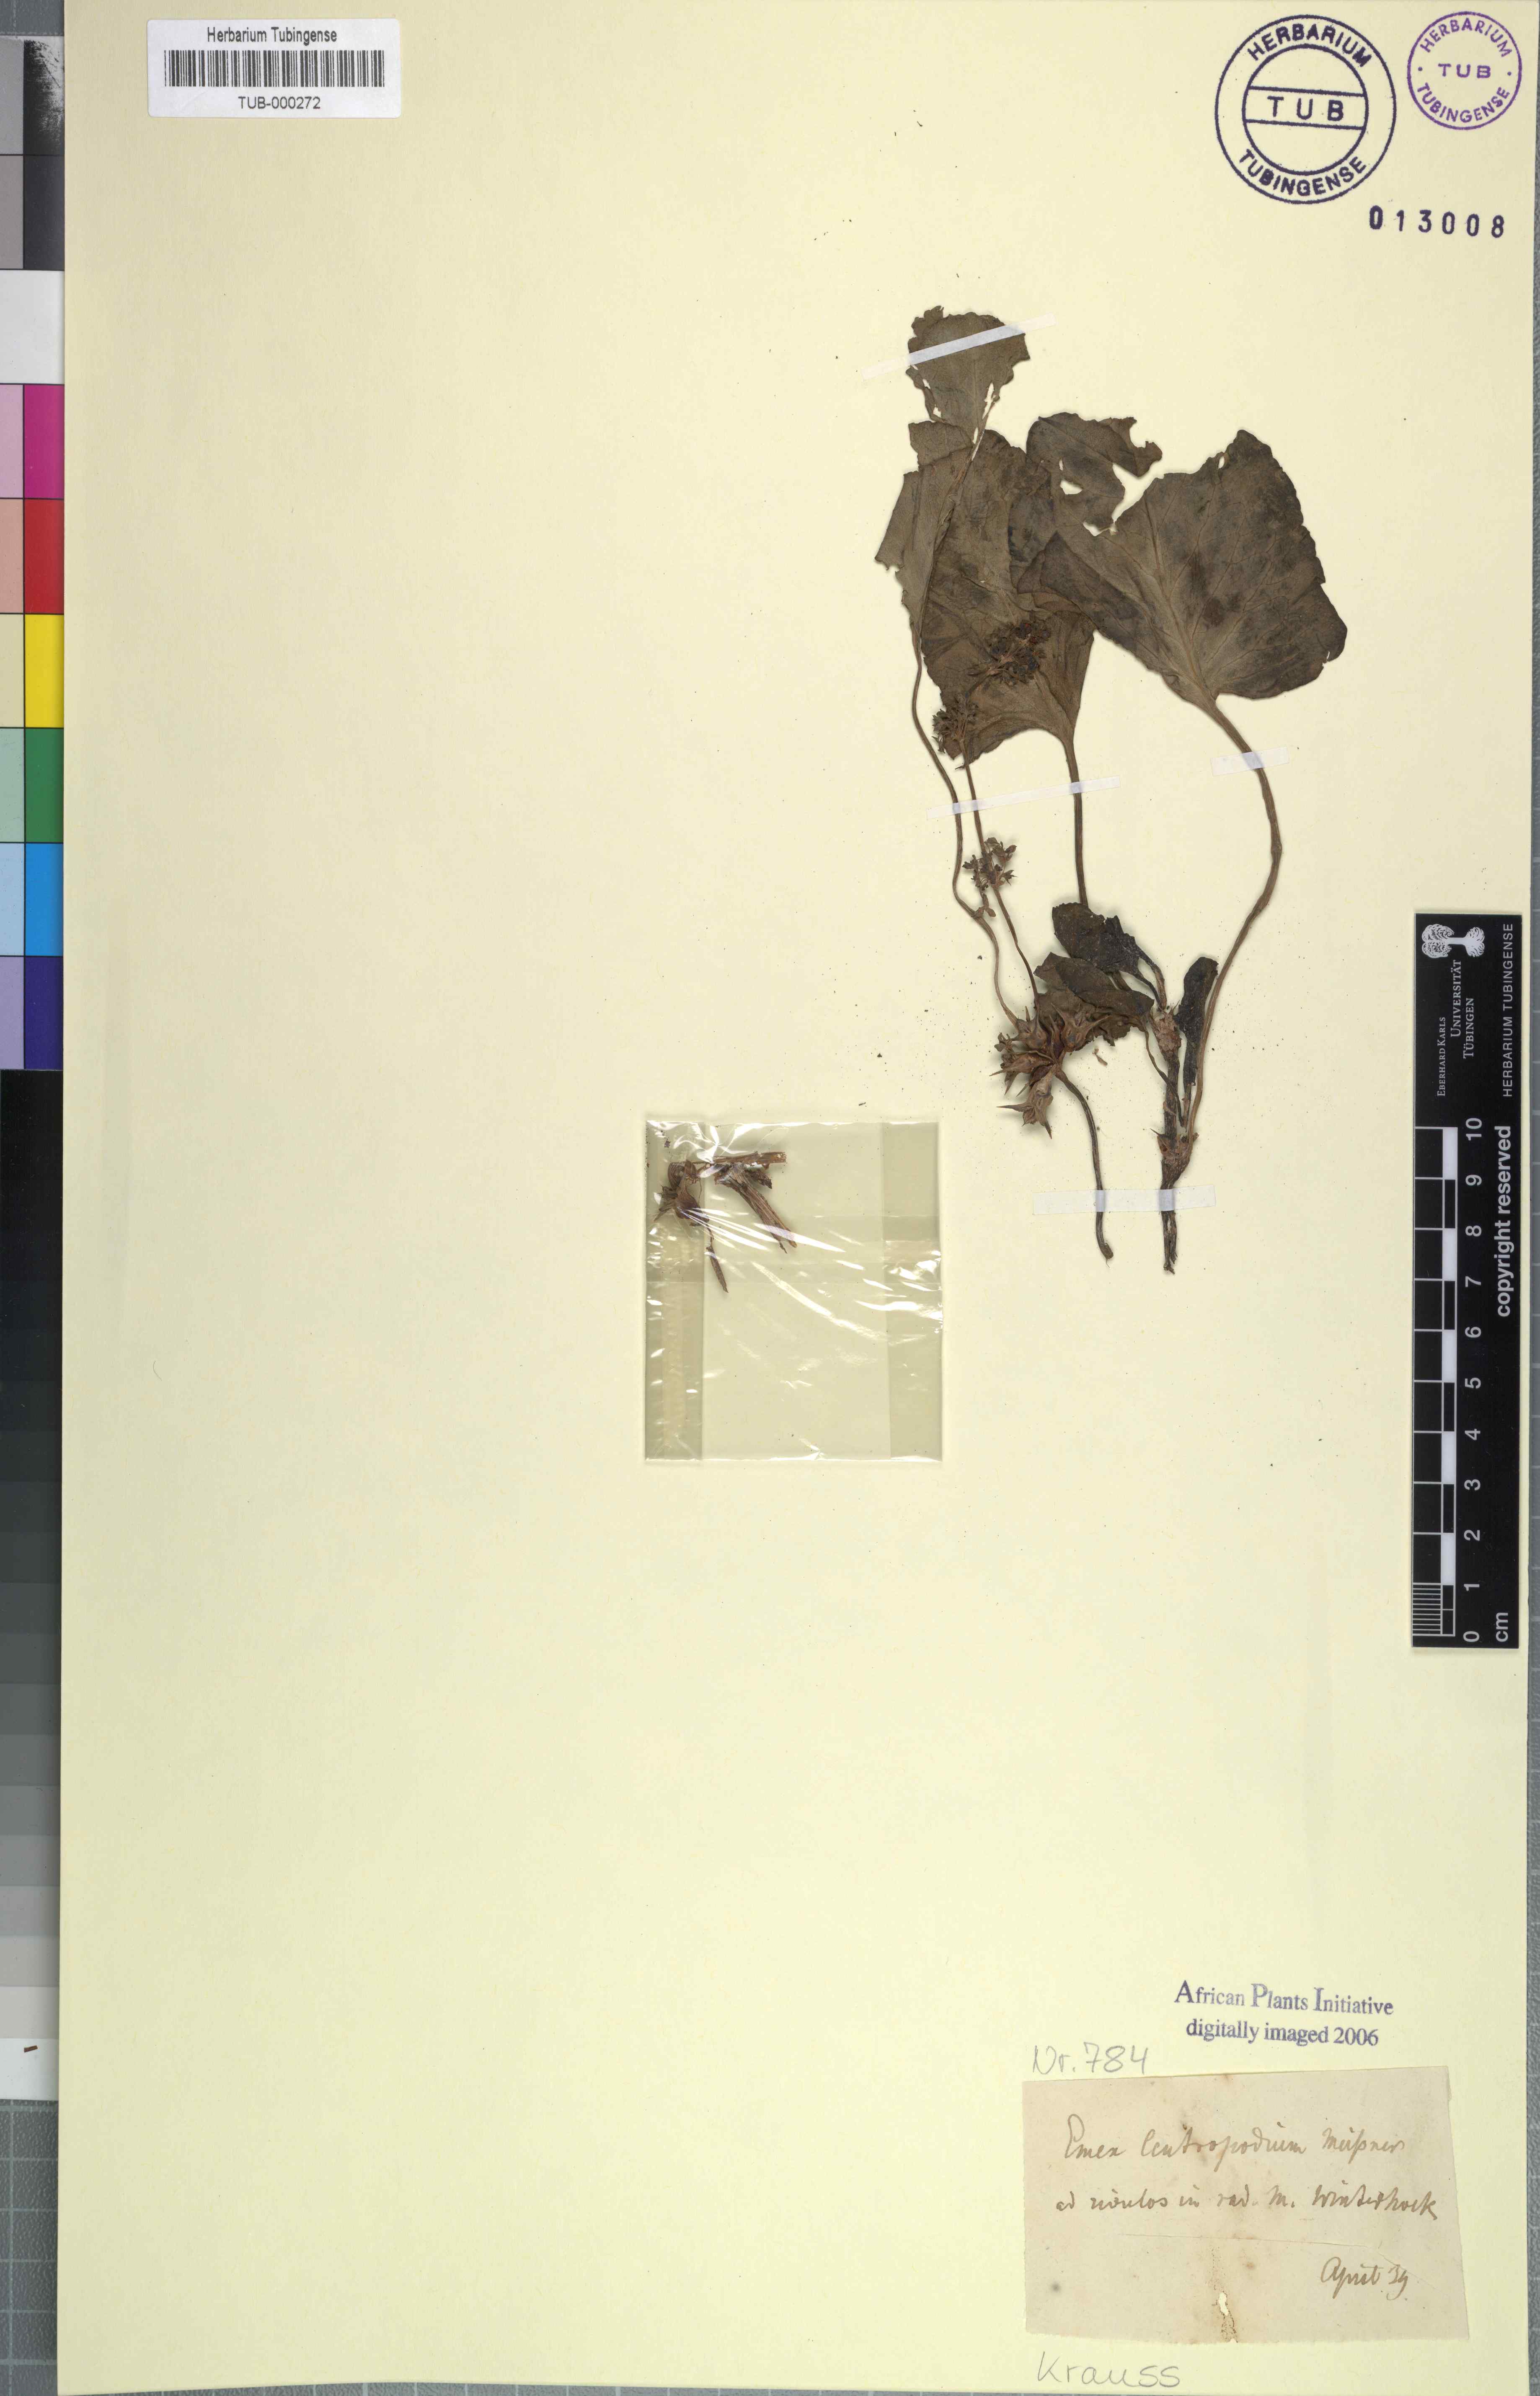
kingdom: Plantae
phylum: Tracheophyta
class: Magnoliopsida
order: Caryophyllales
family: Polygonaceae
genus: Rumex
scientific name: Rumex hypogaeus
